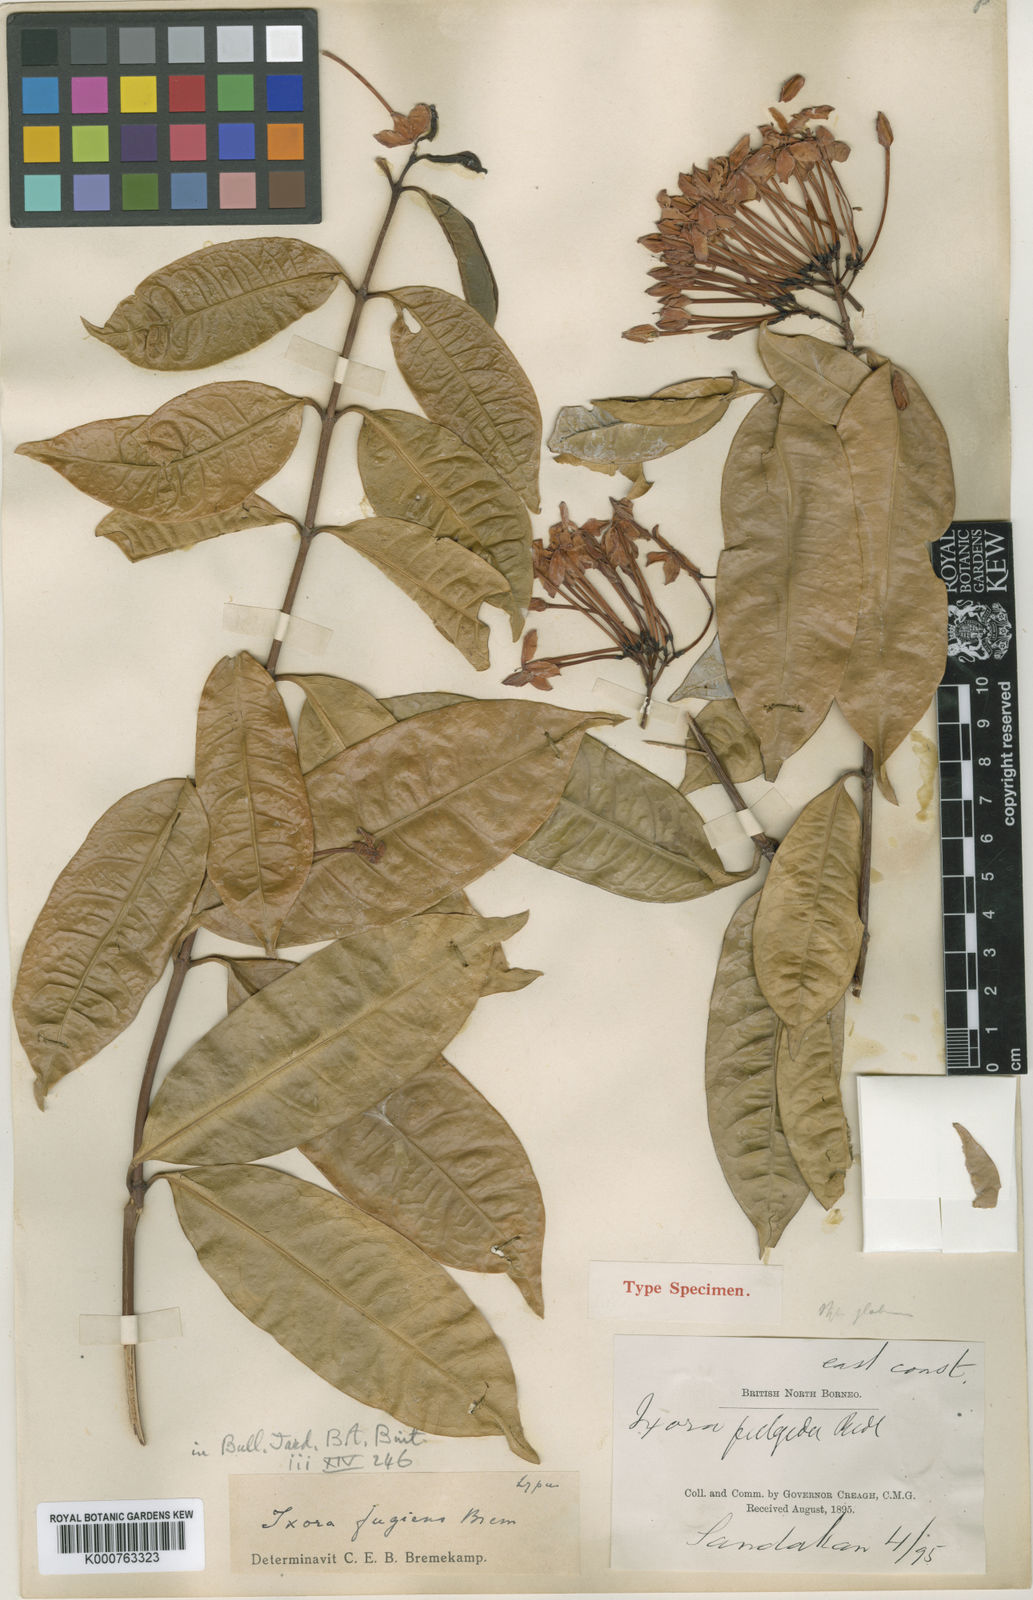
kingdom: Plantae
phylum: Tracheophyta
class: Magnoliopsida
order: Gentianales
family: Rubiaceae
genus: Ixora
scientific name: Ixora fugiens
